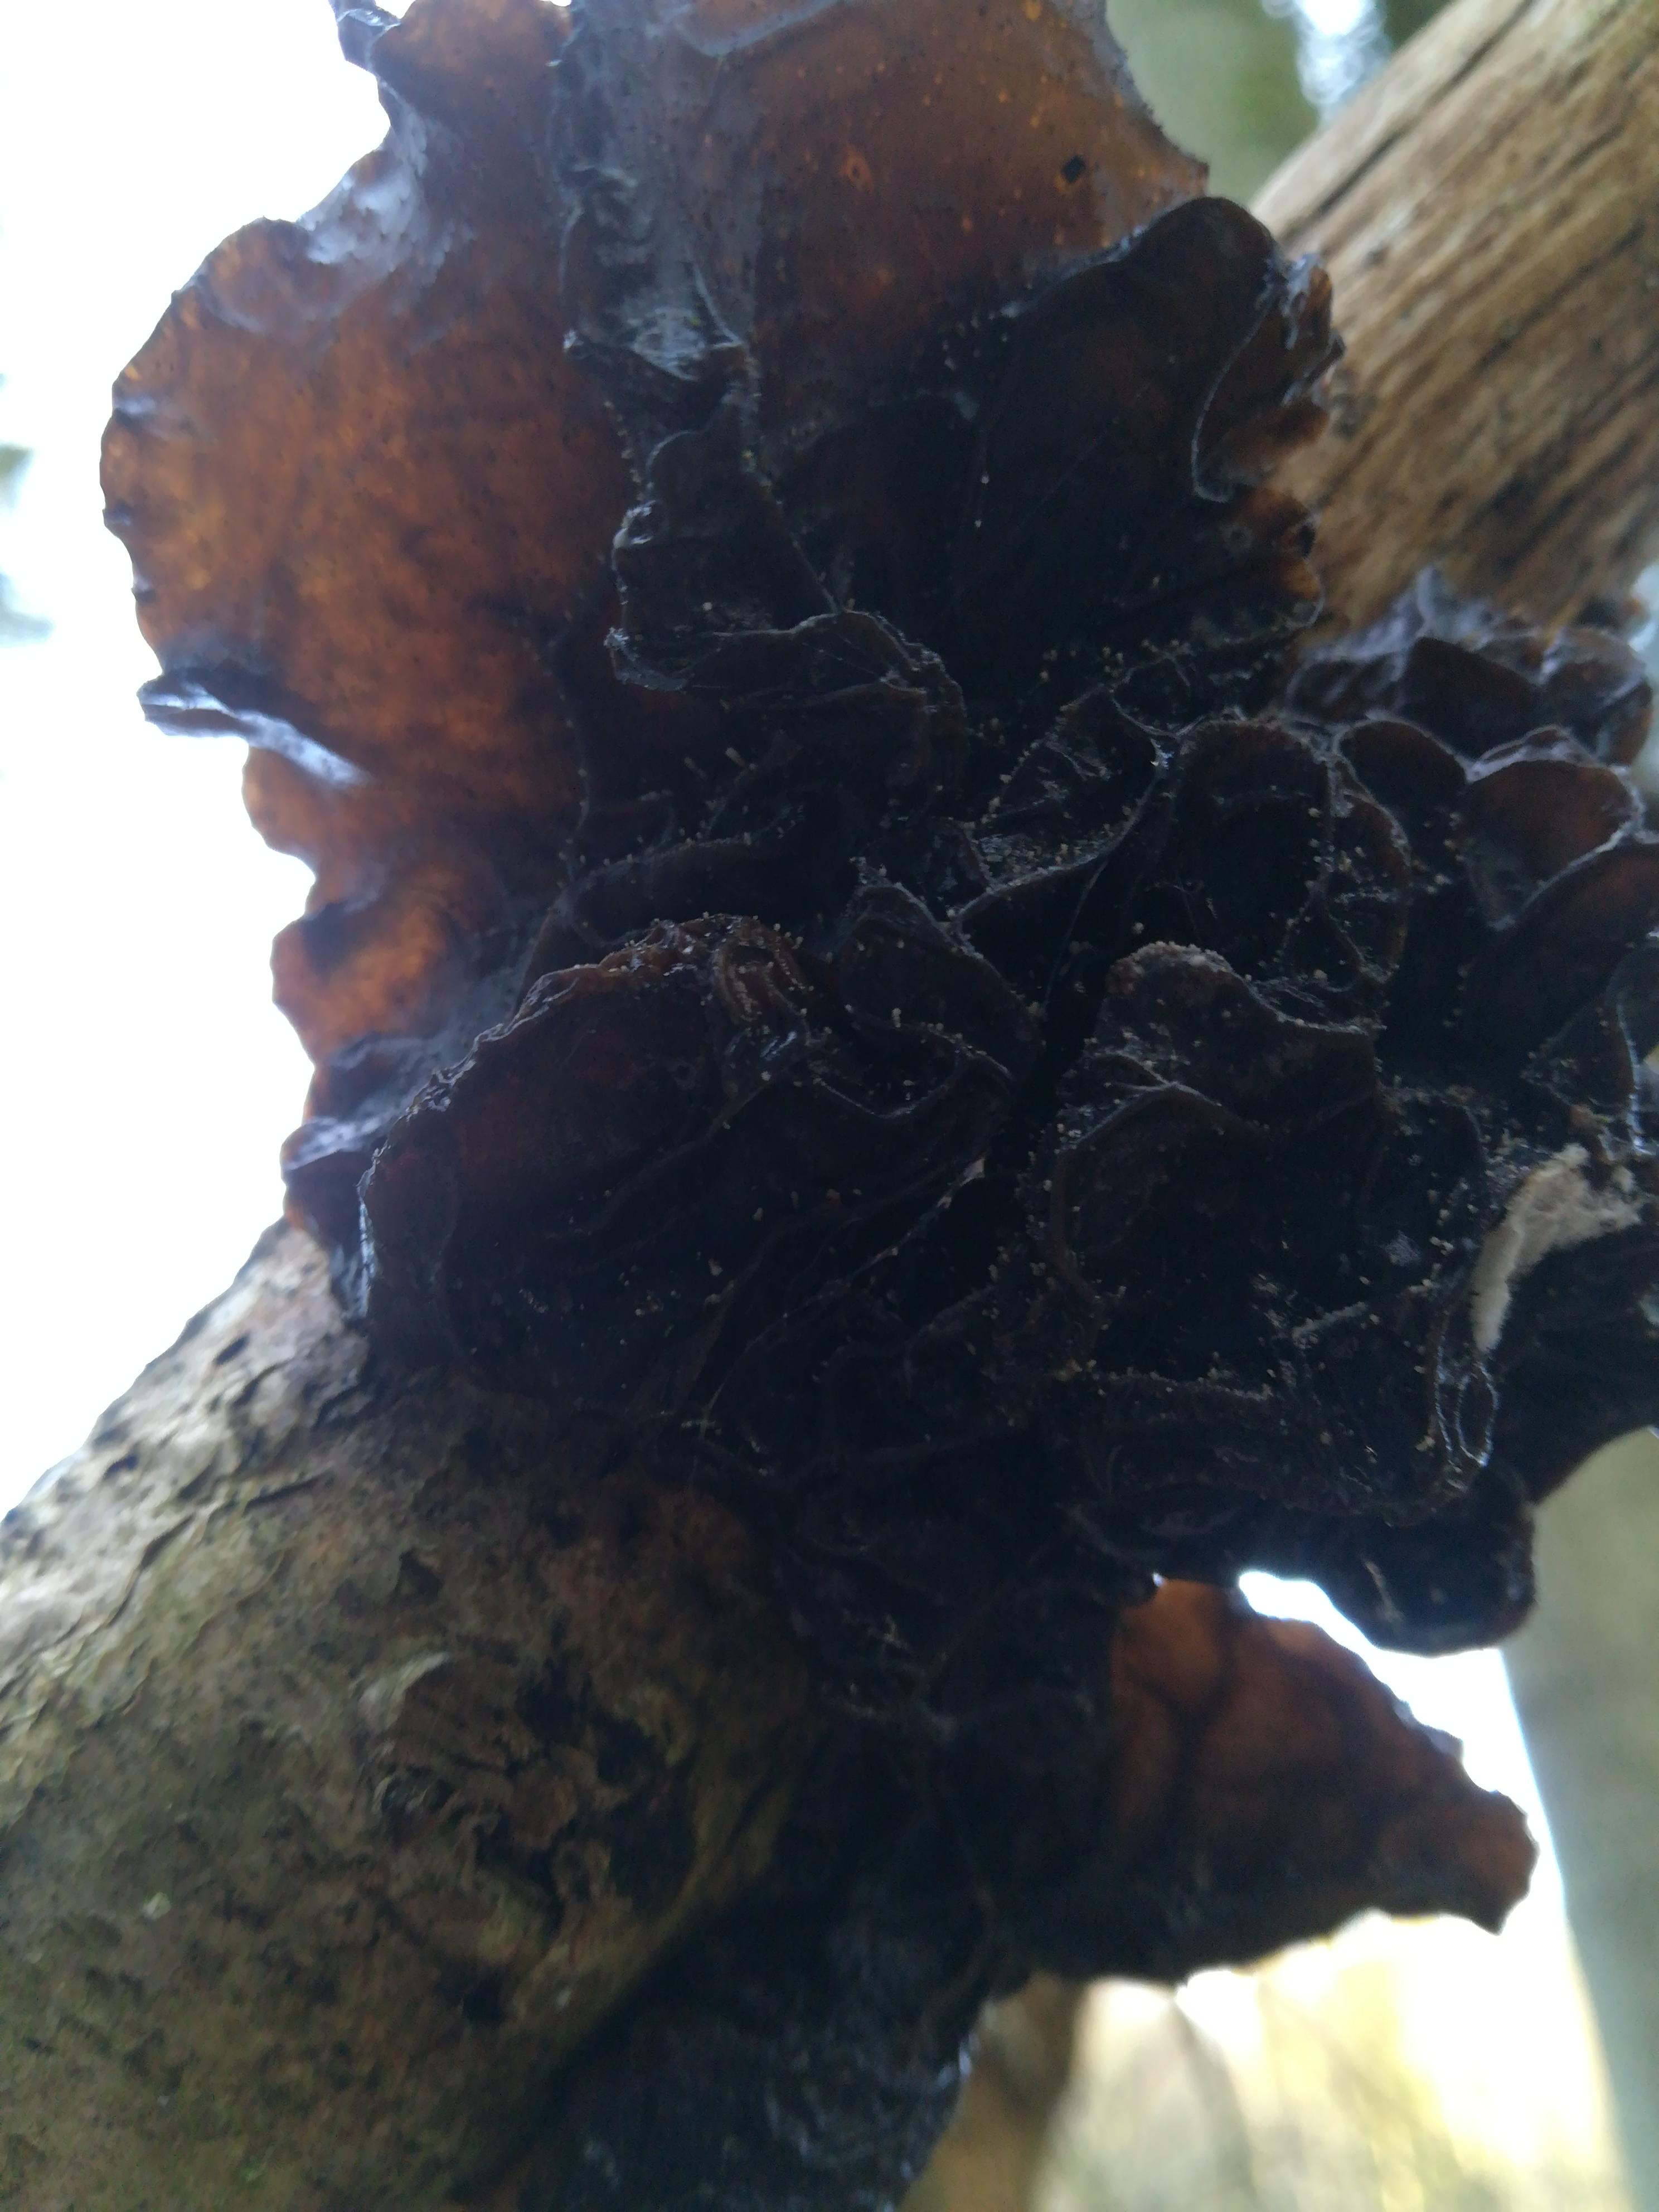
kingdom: Fungi
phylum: Basidiomycota
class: Agaricomycetes
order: Auriculariales
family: Auriculariaceae
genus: Exidia
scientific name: Exidia glandulosa
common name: ege-bævretop
